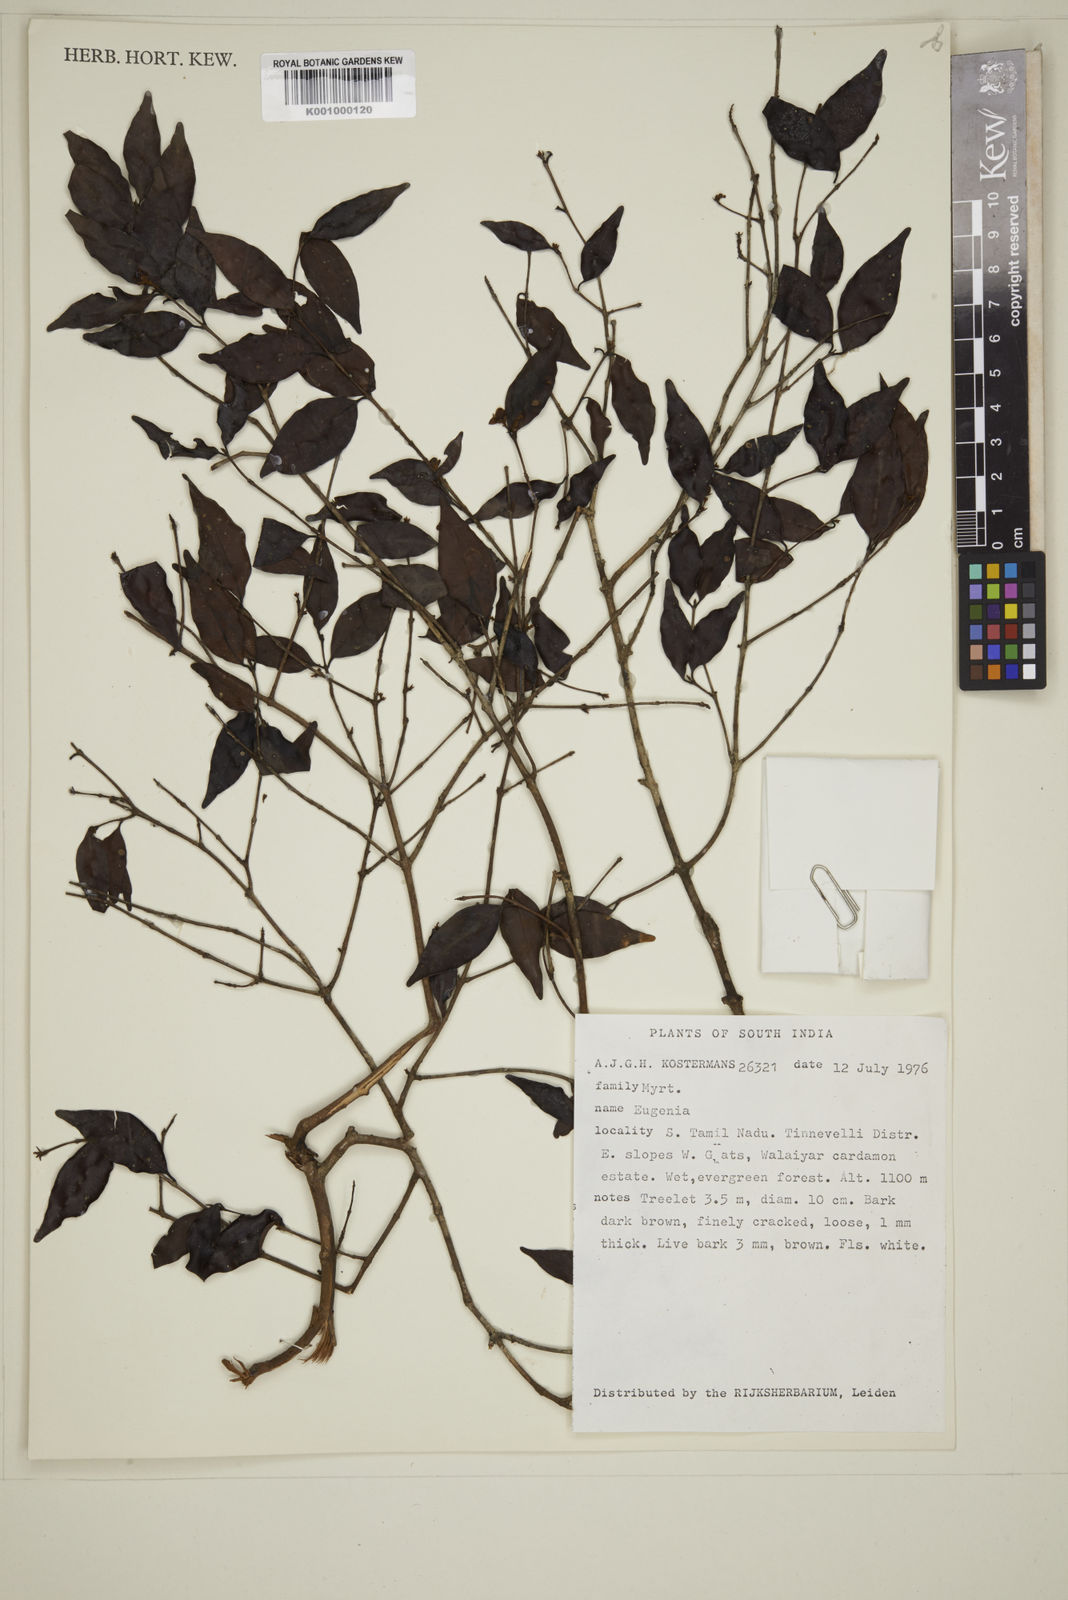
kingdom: Plantae
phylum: Tracheophyta
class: Magnoliopsida
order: Myrtales
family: Myrtaceae
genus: Eugenia
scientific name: Eugenia
